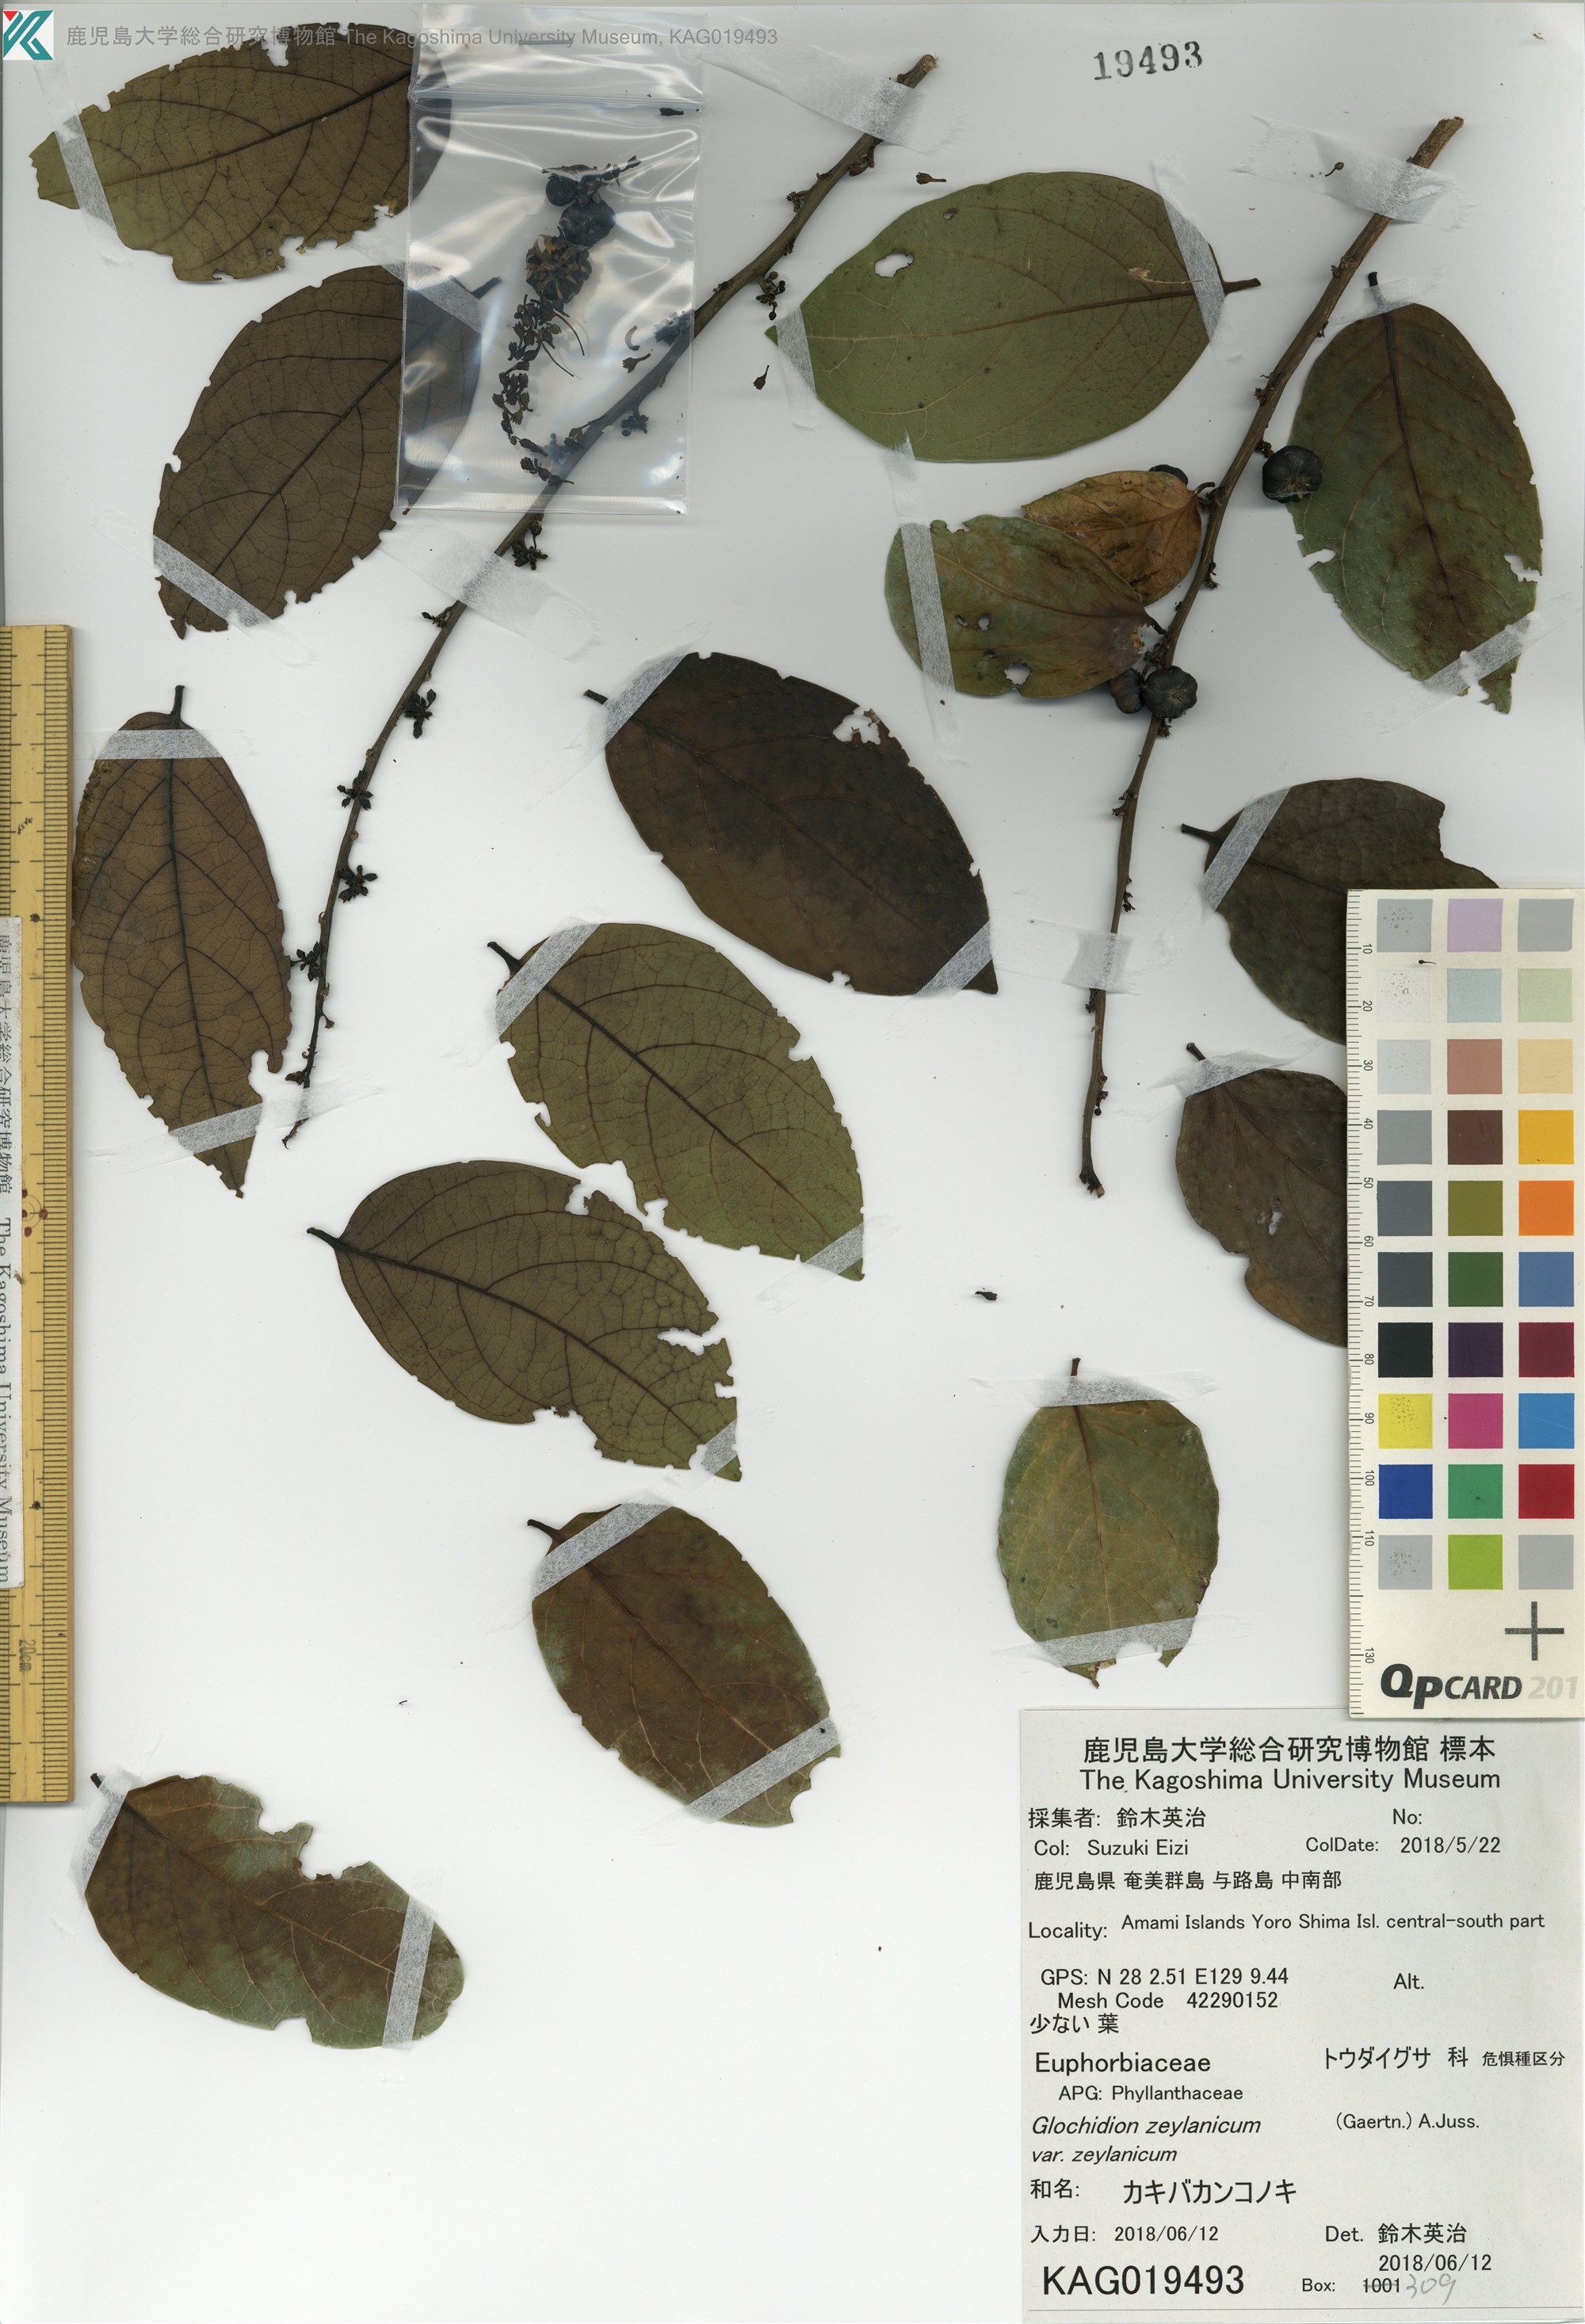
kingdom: Plantae
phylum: Tracheophyta
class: Magnoliopsida
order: Malpighiales
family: Phyllanthaceae
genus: Glochidion
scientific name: Glochidion zeylanicum
